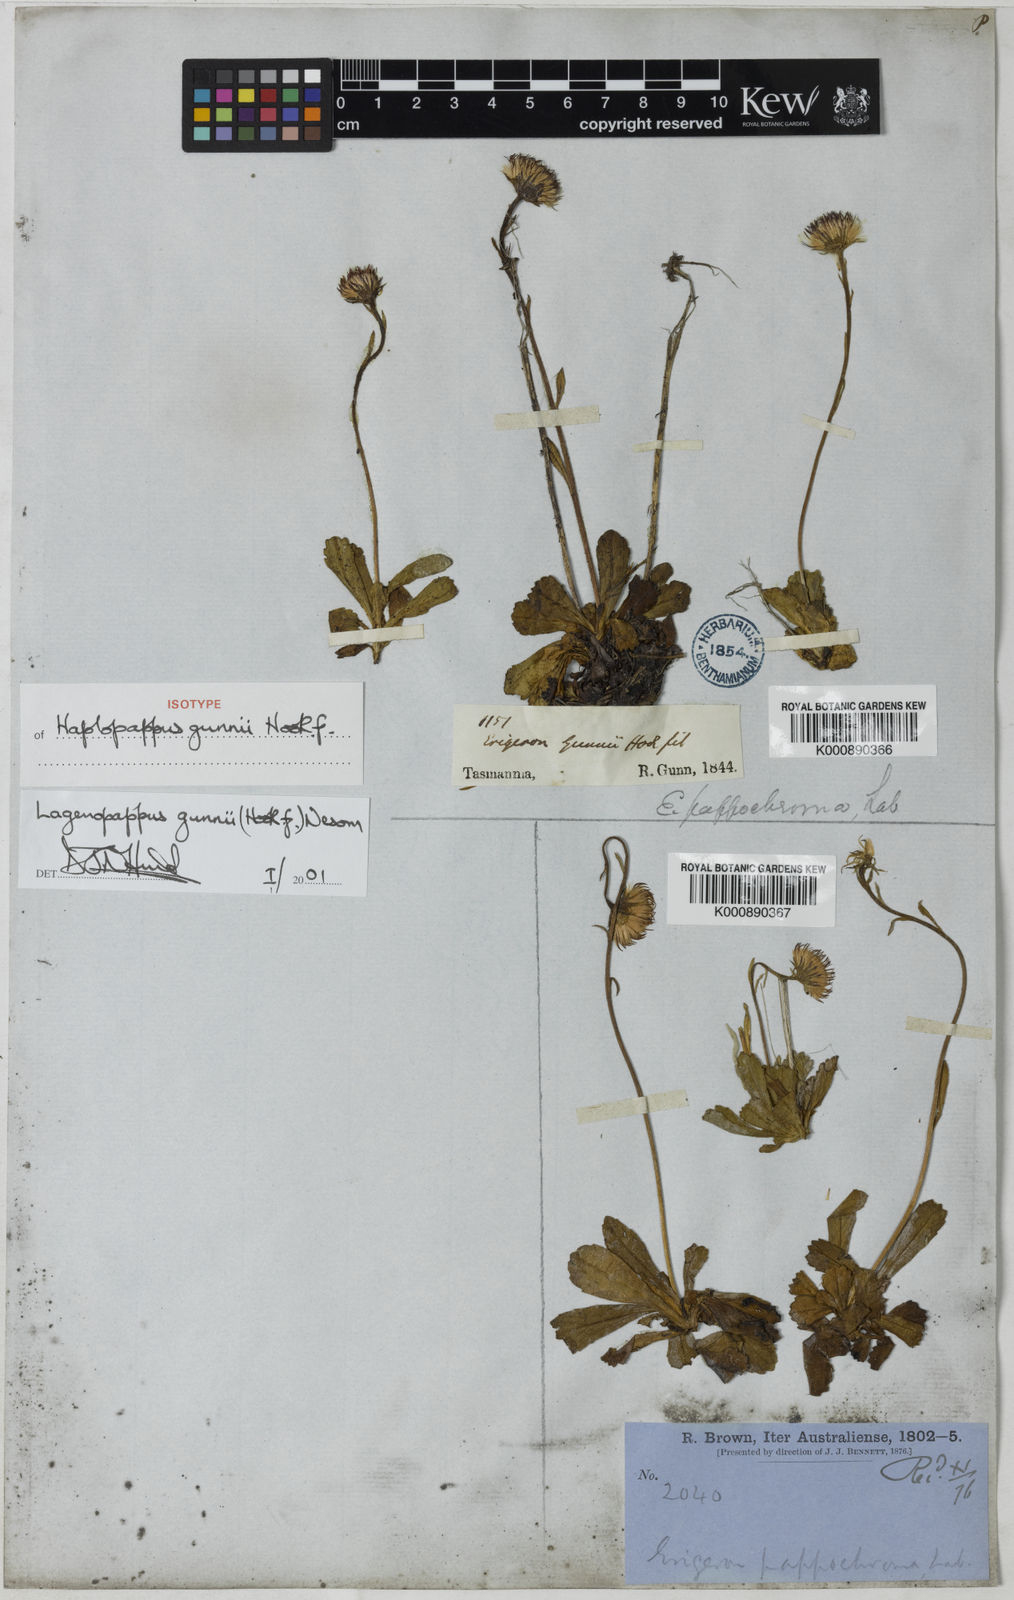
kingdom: Plantae
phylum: Tracheophyta
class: Magnoliopsida
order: Asterales
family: Asteraceae
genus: Pappochroma
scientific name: Pappochroma gunnii
